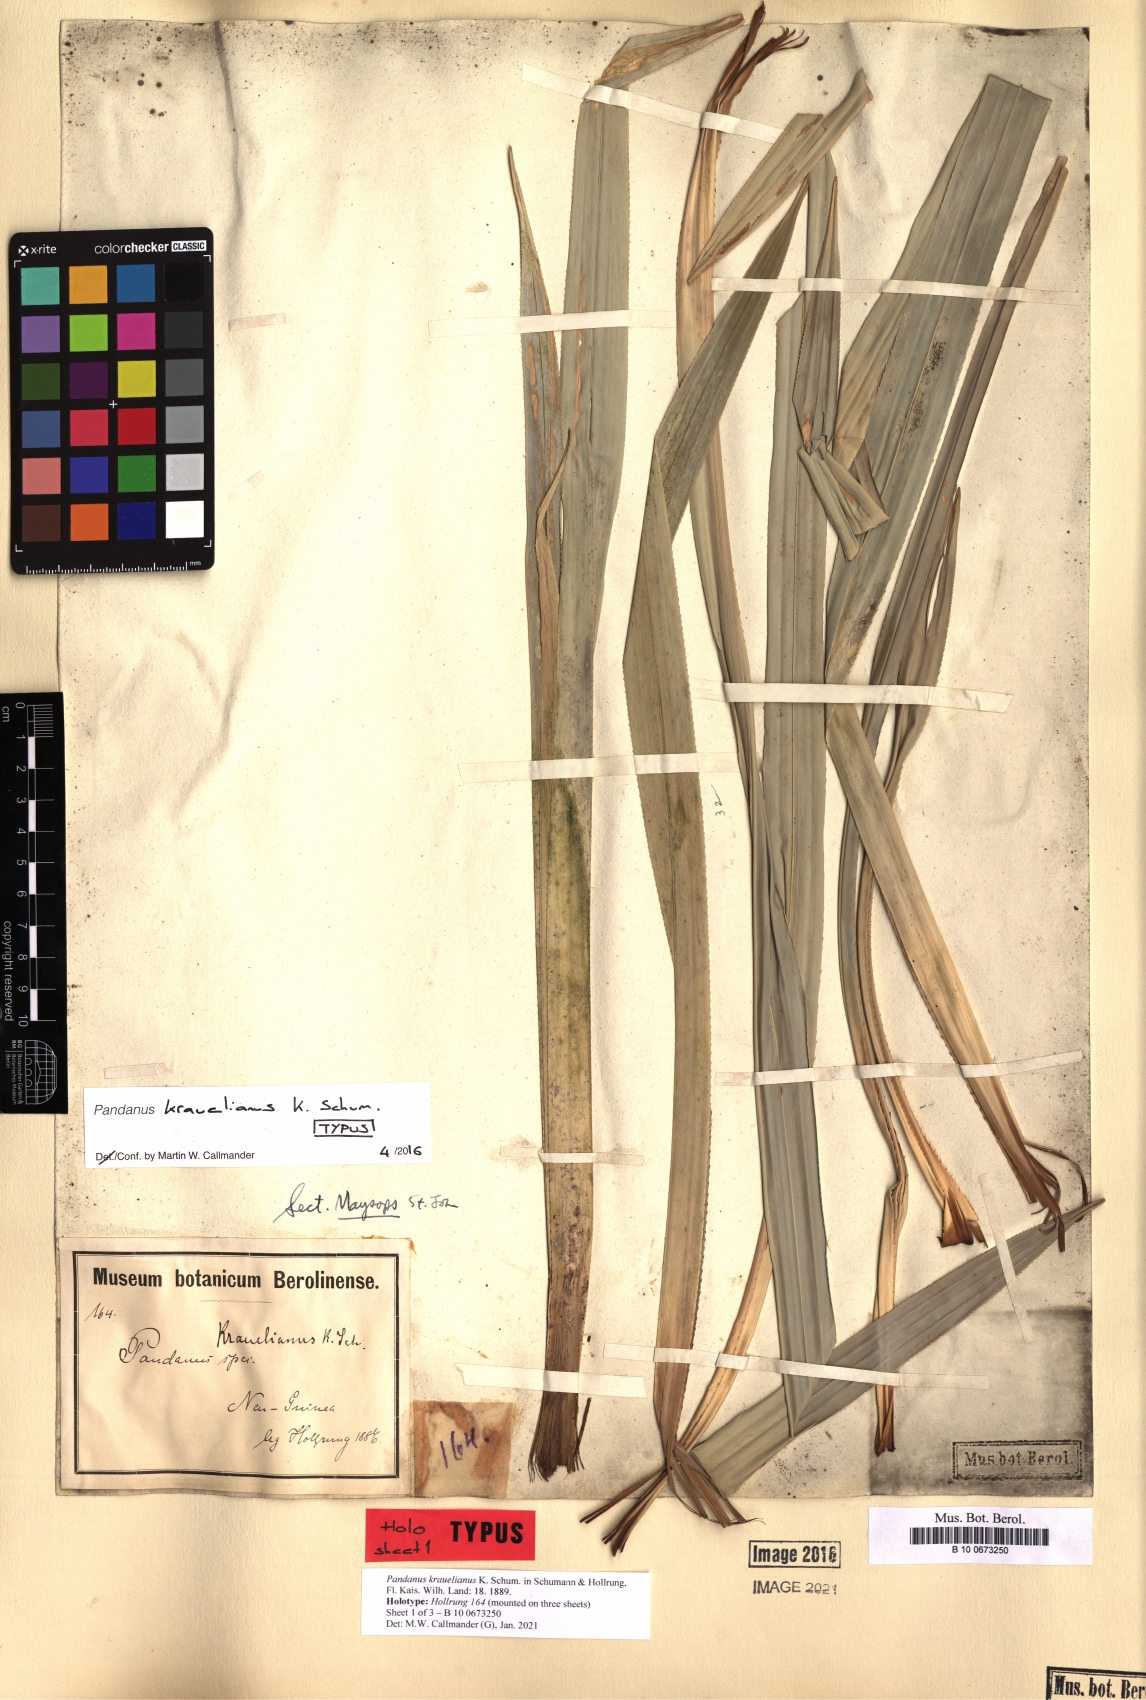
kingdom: Plantae
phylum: Tracheophyta
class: Liliopsida
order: Pandanales
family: Pandanaceae
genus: Pandanus
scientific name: Pandanus krauelianus
